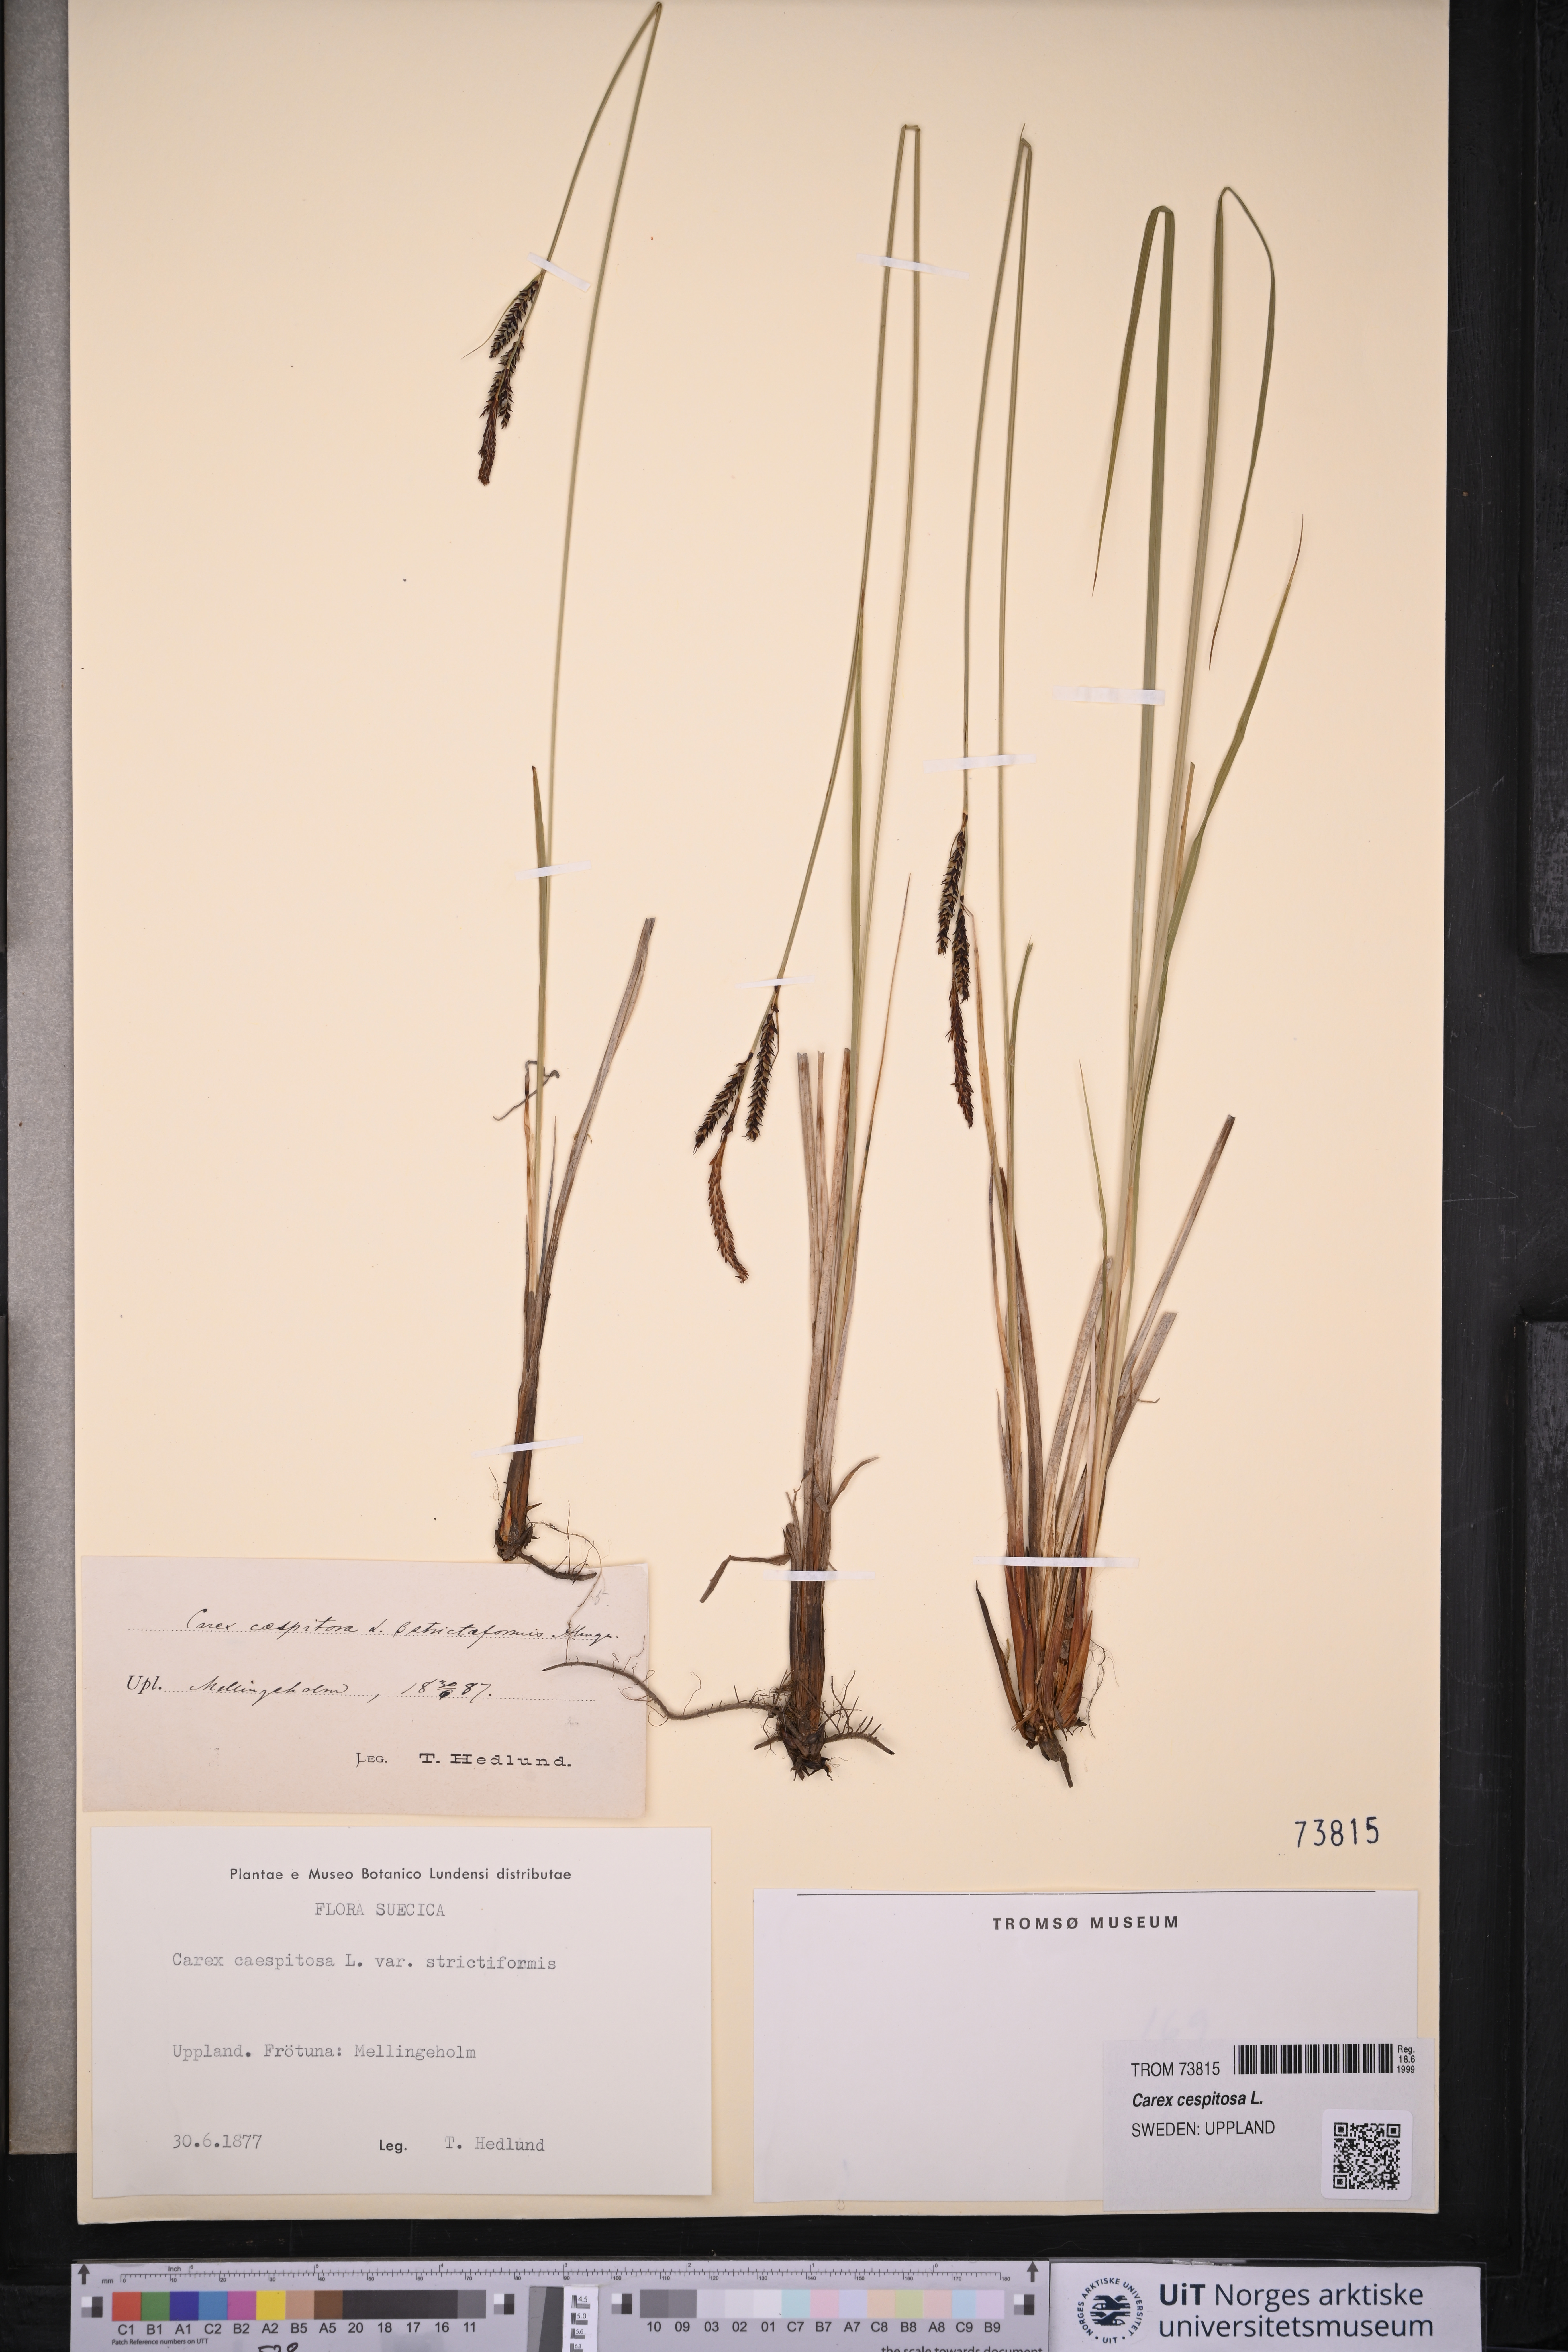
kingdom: Plantae
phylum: Tracheophyta
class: Liliopsida
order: Poales
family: Cyperaceae
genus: Carex
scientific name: Carex cespitosa
